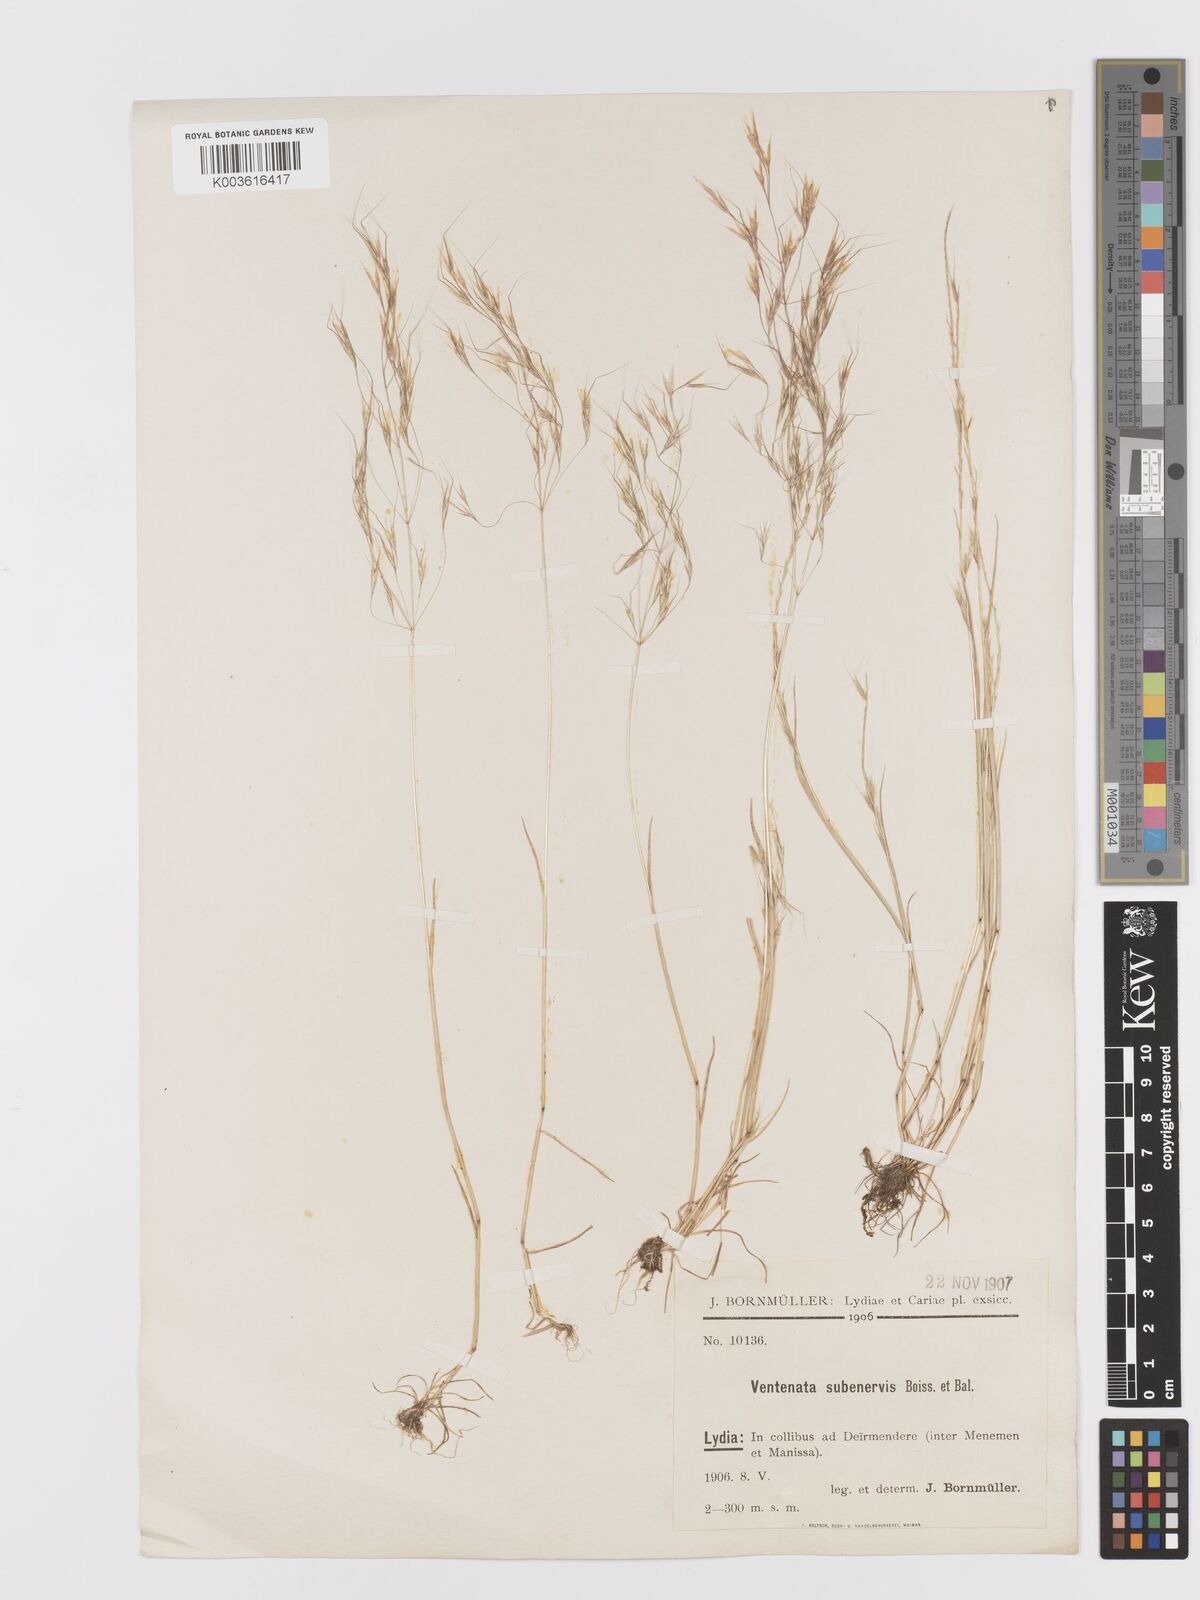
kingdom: Plantae
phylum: Tracheophyta
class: Liliopsida
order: Poales
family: Poaceae
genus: Ventenata
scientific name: Ventenata subenervis
